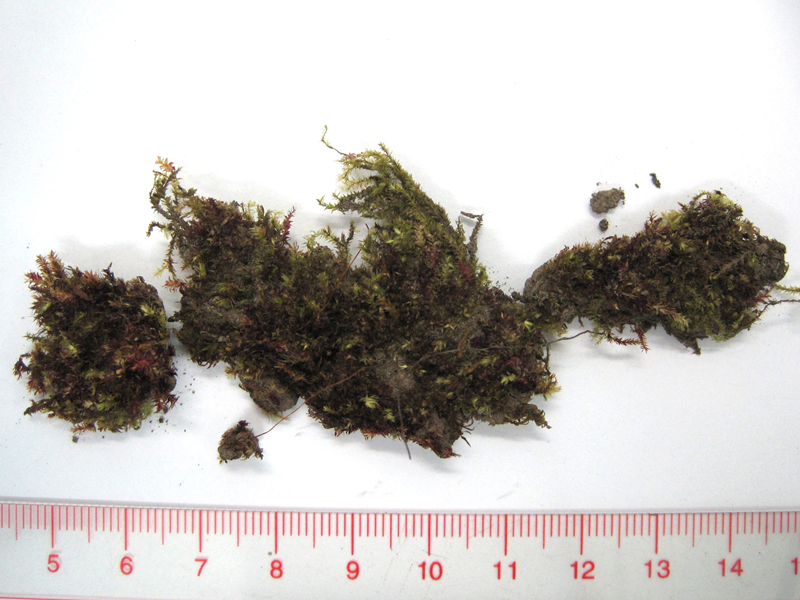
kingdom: Plantae
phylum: Bryophyta
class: Bryopsida
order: Hypnales
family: Plagiotheciaceae
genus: Pseudotaxiphyllum
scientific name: Pseudotaxiphyllum pohliaecarpum
